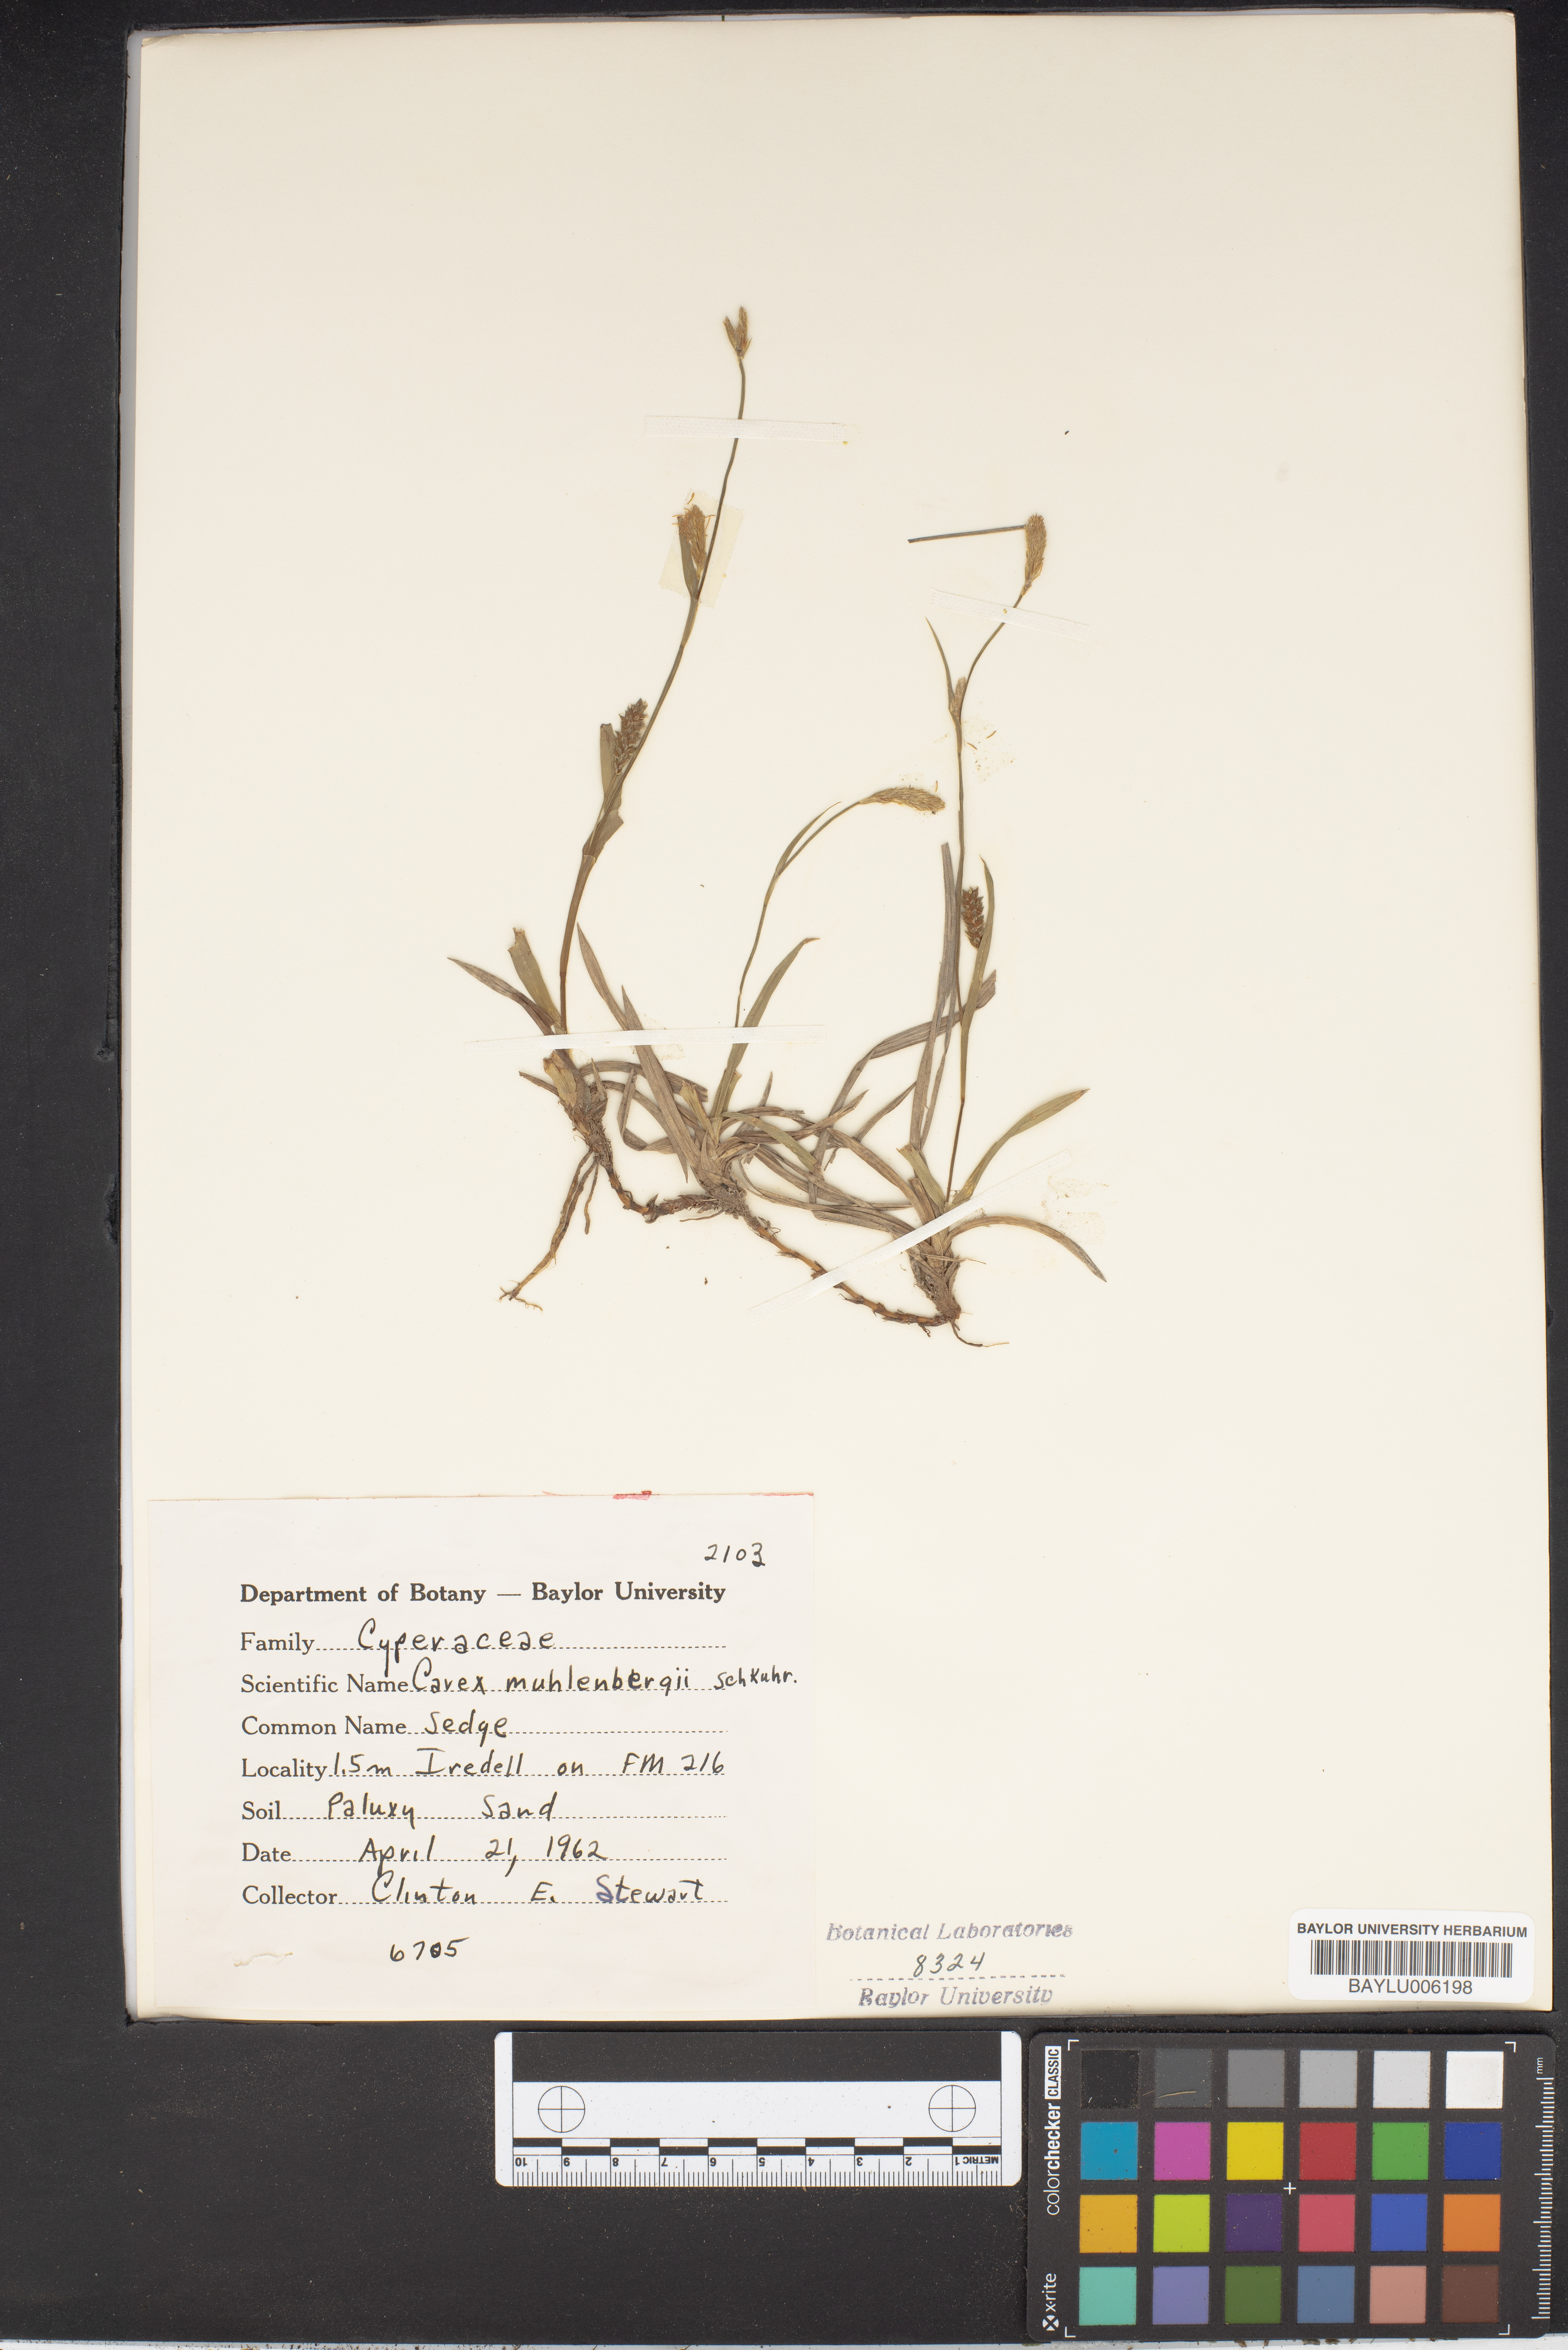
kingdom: Plantae
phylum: Tracheophyta
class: Liliopsida
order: Poales
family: Cyperaceae
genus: Carex
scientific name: Carex vulpinoidea
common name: American fox-sedge
